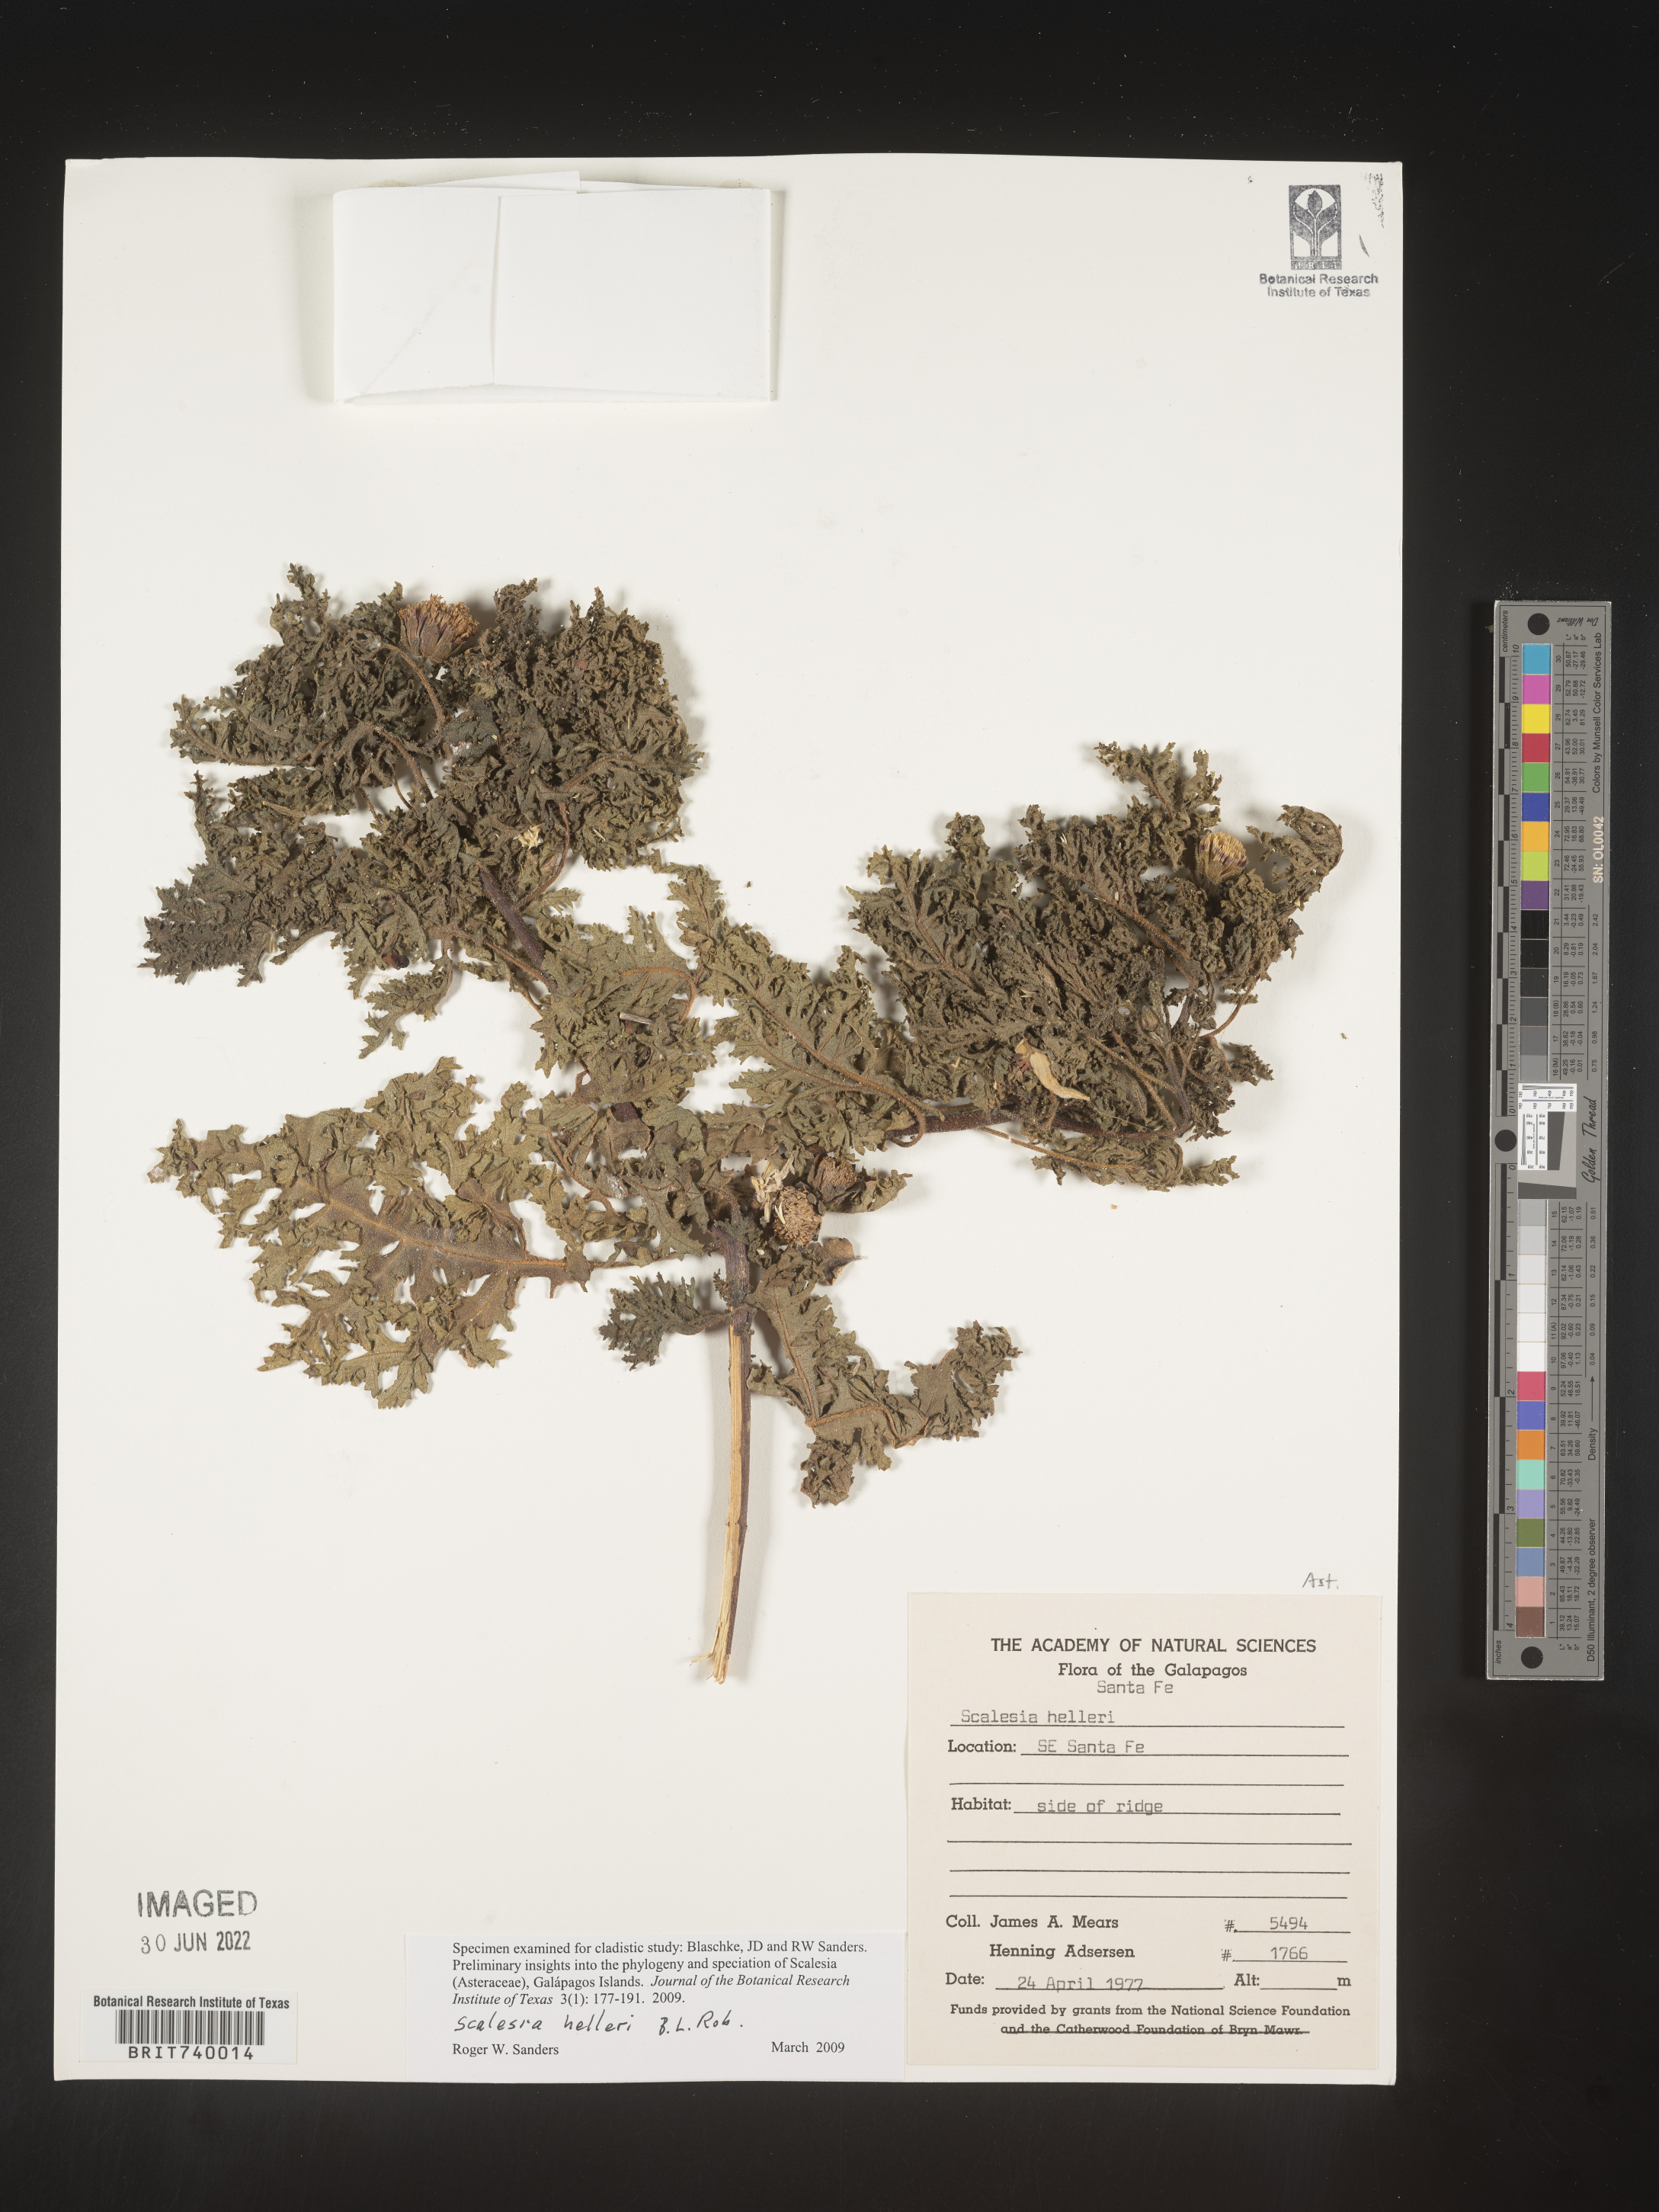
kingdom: Plantae
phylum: Tracheophyta
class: Magnoliopsida
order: Asterales
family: Asteraceae
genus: Scalesia
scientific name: Scalesia
